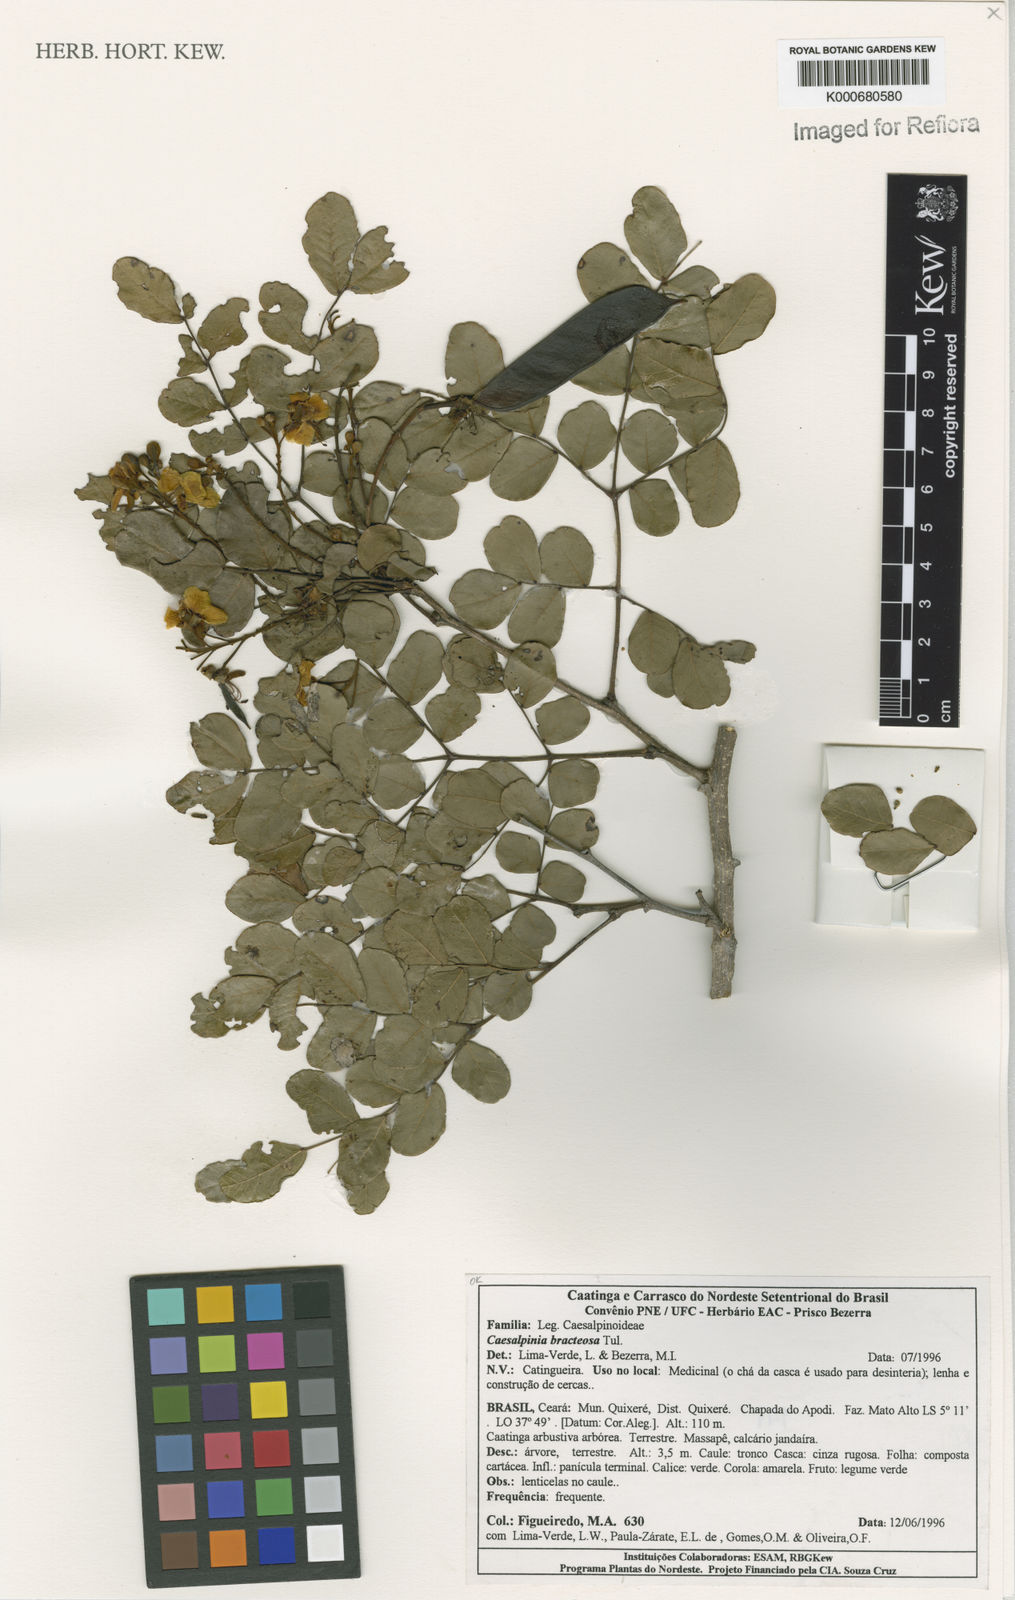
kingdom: Plantae
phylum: Tracheophyta
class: Magnoliopsida
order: Fabales
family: Fabaceae
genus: Cenostigma
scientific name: Cenostigma bracteosum
